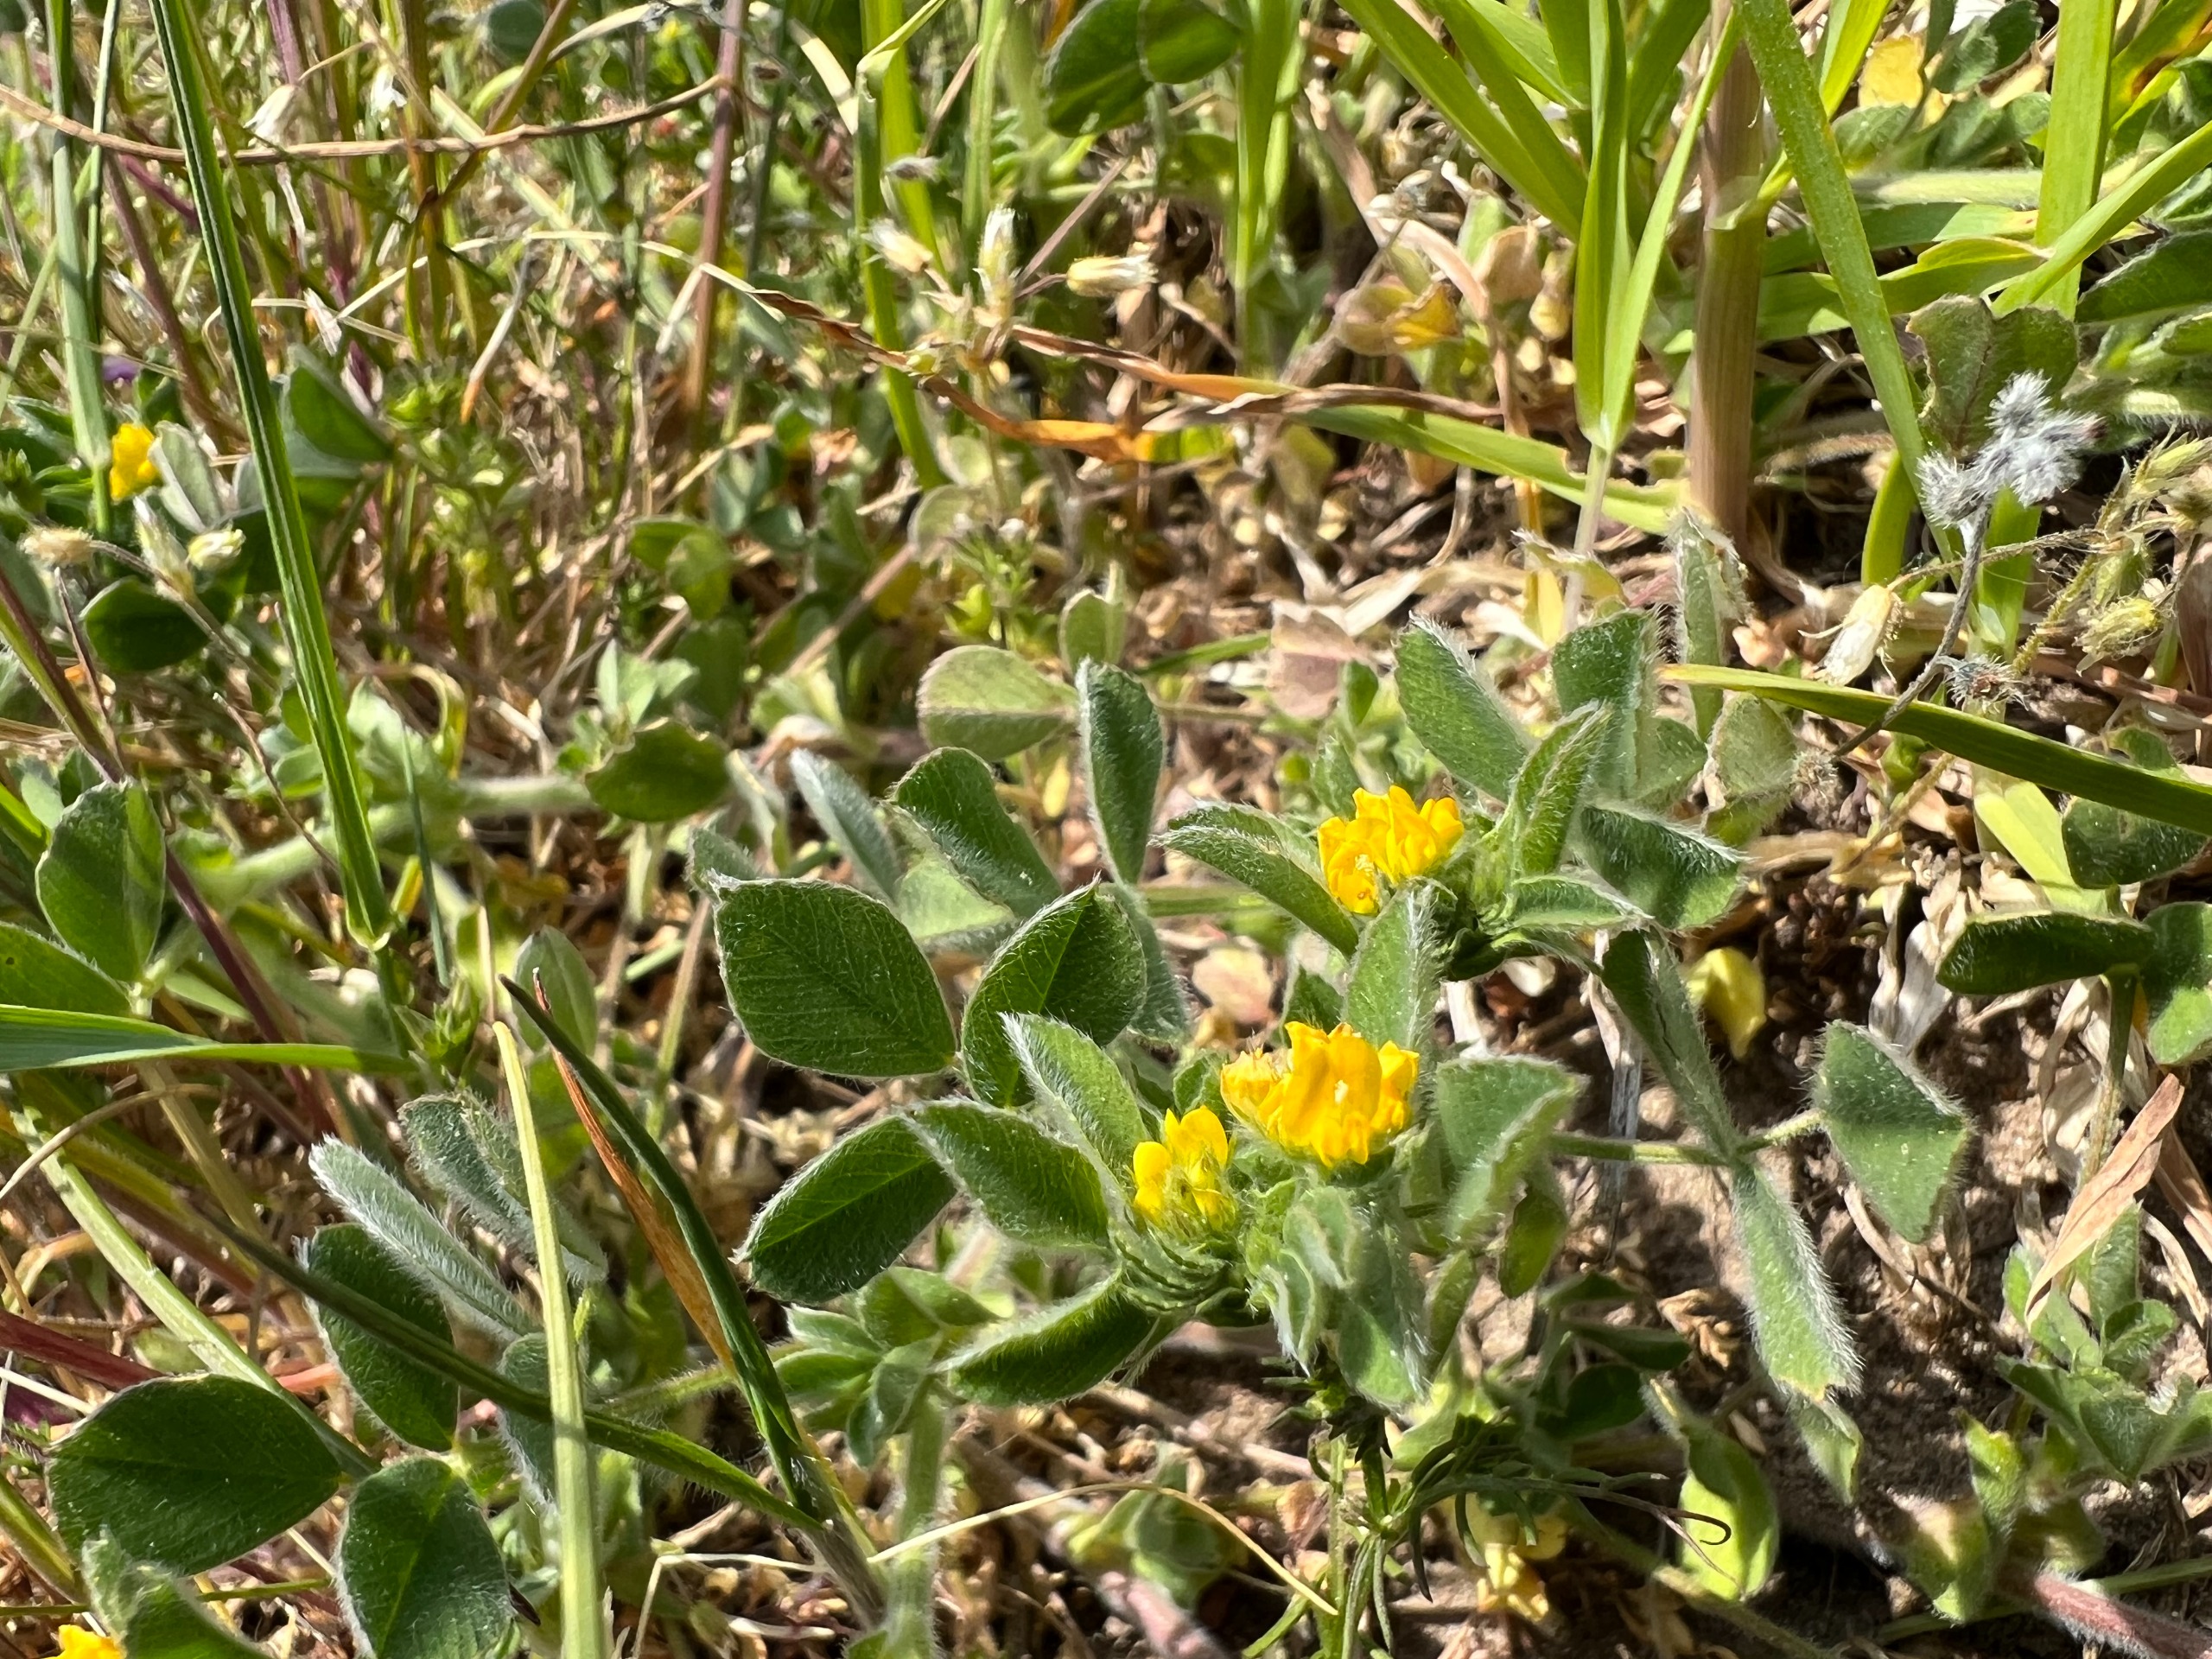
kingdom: Plantae
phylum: Tracheophyta
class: Magnoliopsida
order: Fabales
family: Fabaceae
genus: Medicago
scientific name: Medicago minima
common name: Liden sneglebælg
